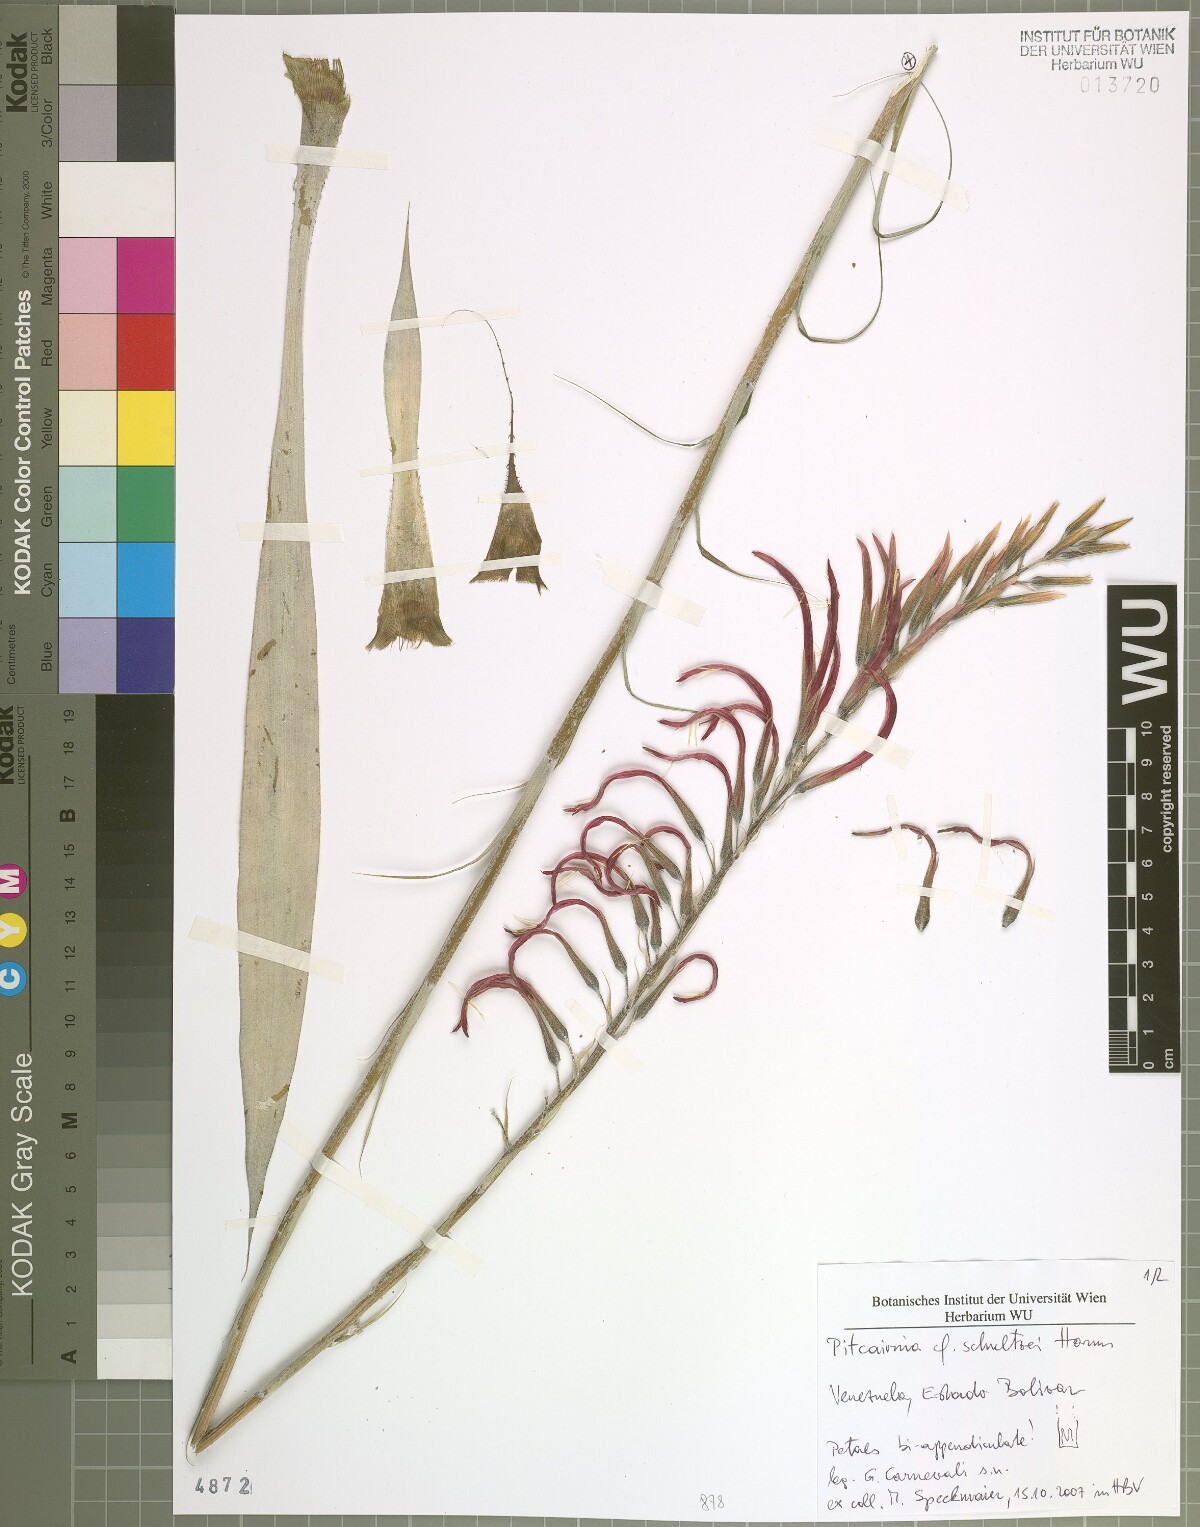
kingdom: Plantae
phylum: Tracheophyta
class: Liliopsida
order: Poales
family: Bromeliaceae
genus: Pitcairnia
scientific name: Pitcairnia
